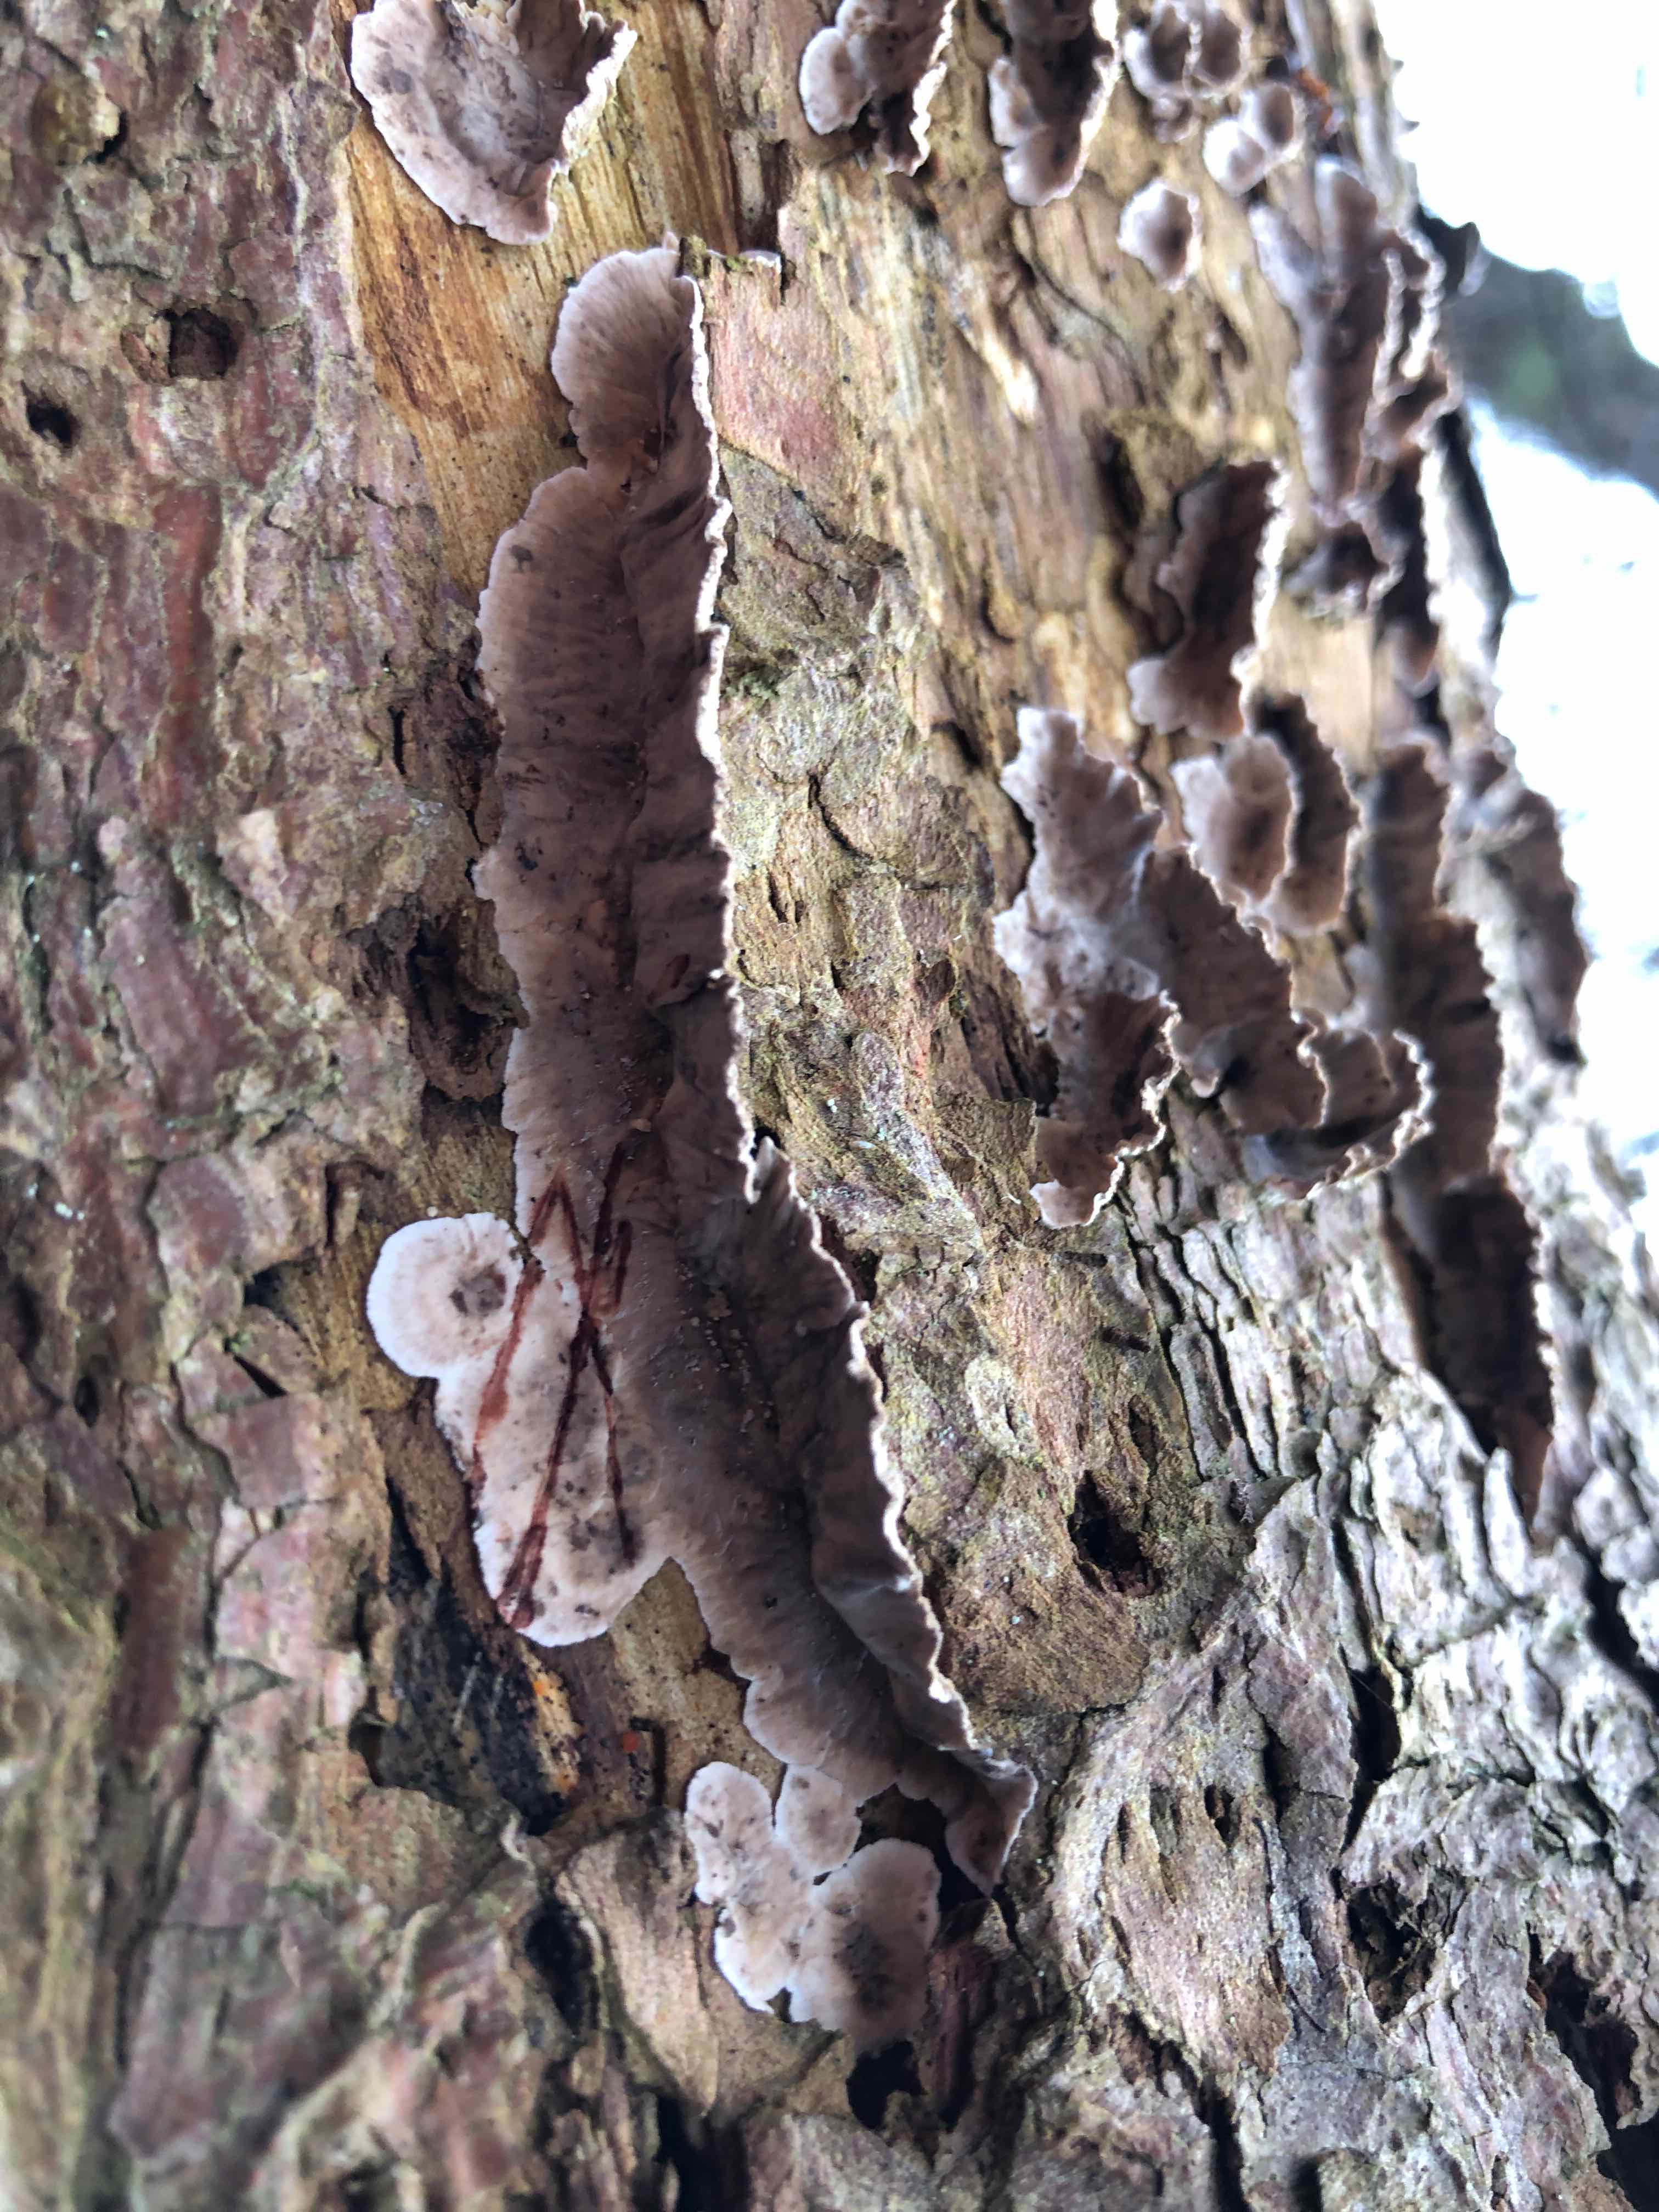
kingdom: Fungi
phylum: Basidiomycota
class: Agaricomycetes
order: Russulales
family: Stereaceae
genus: Stereum
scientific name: Stereum sanguinolentum
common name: blødende lædersvamp
